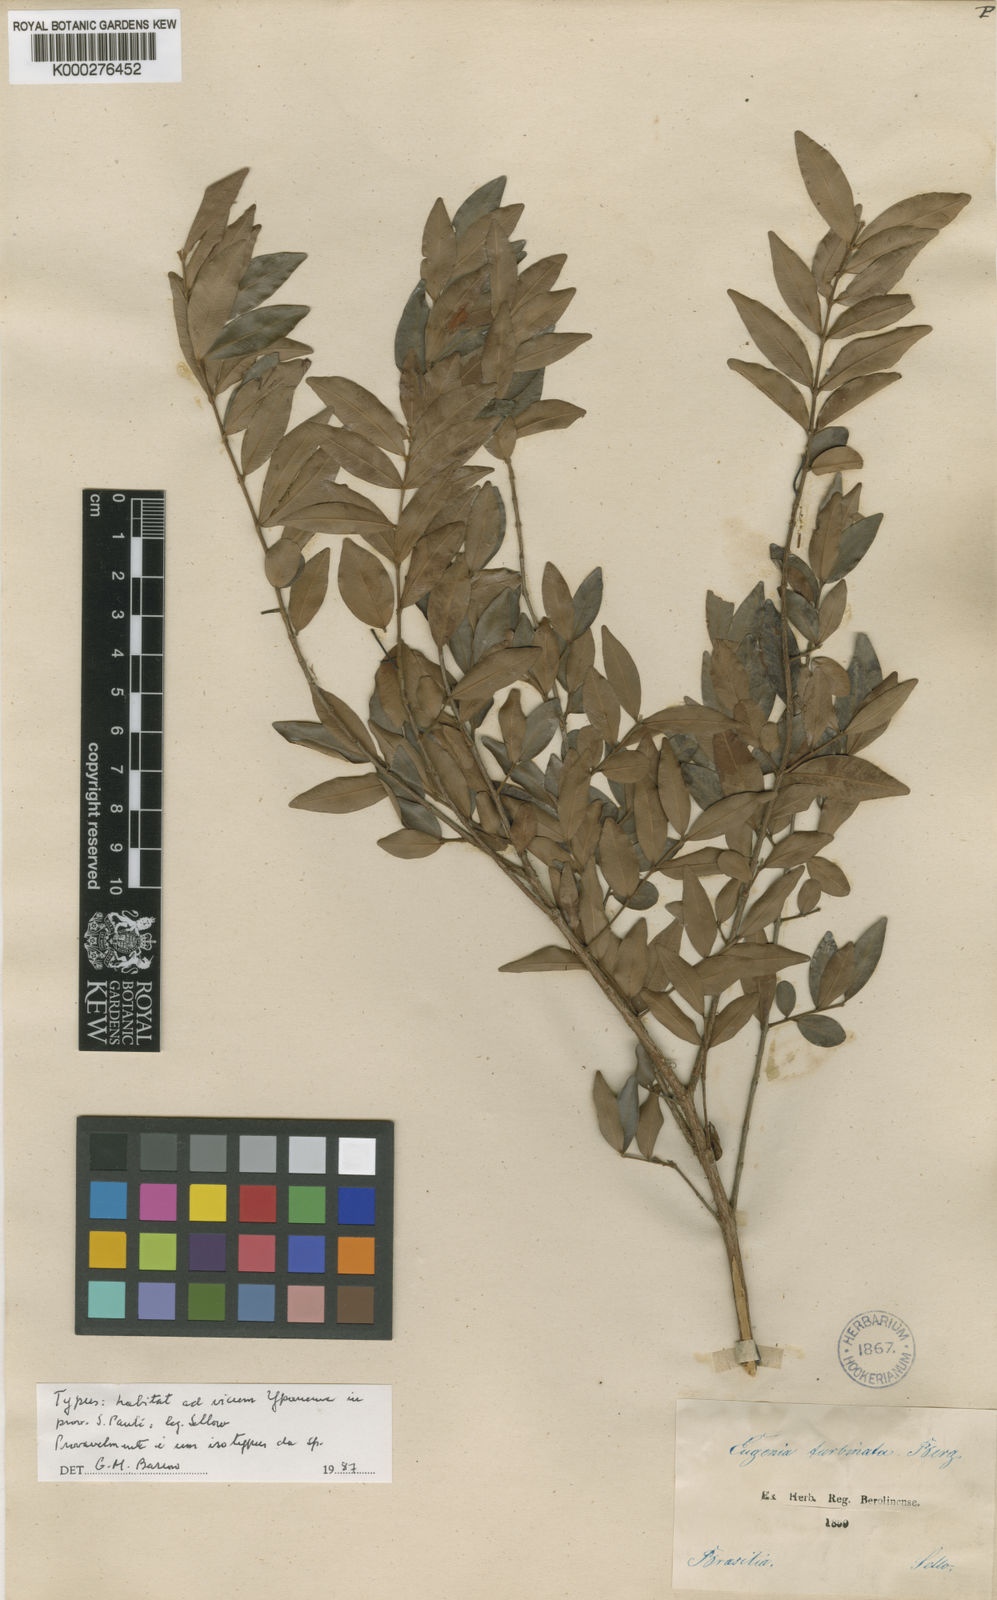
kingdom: Plantae
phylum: Tracheophyta
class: Magnoliopsida
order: Myrtales
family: Myrtaceae
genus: Eugenia
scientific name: Eugenia pyriformis
